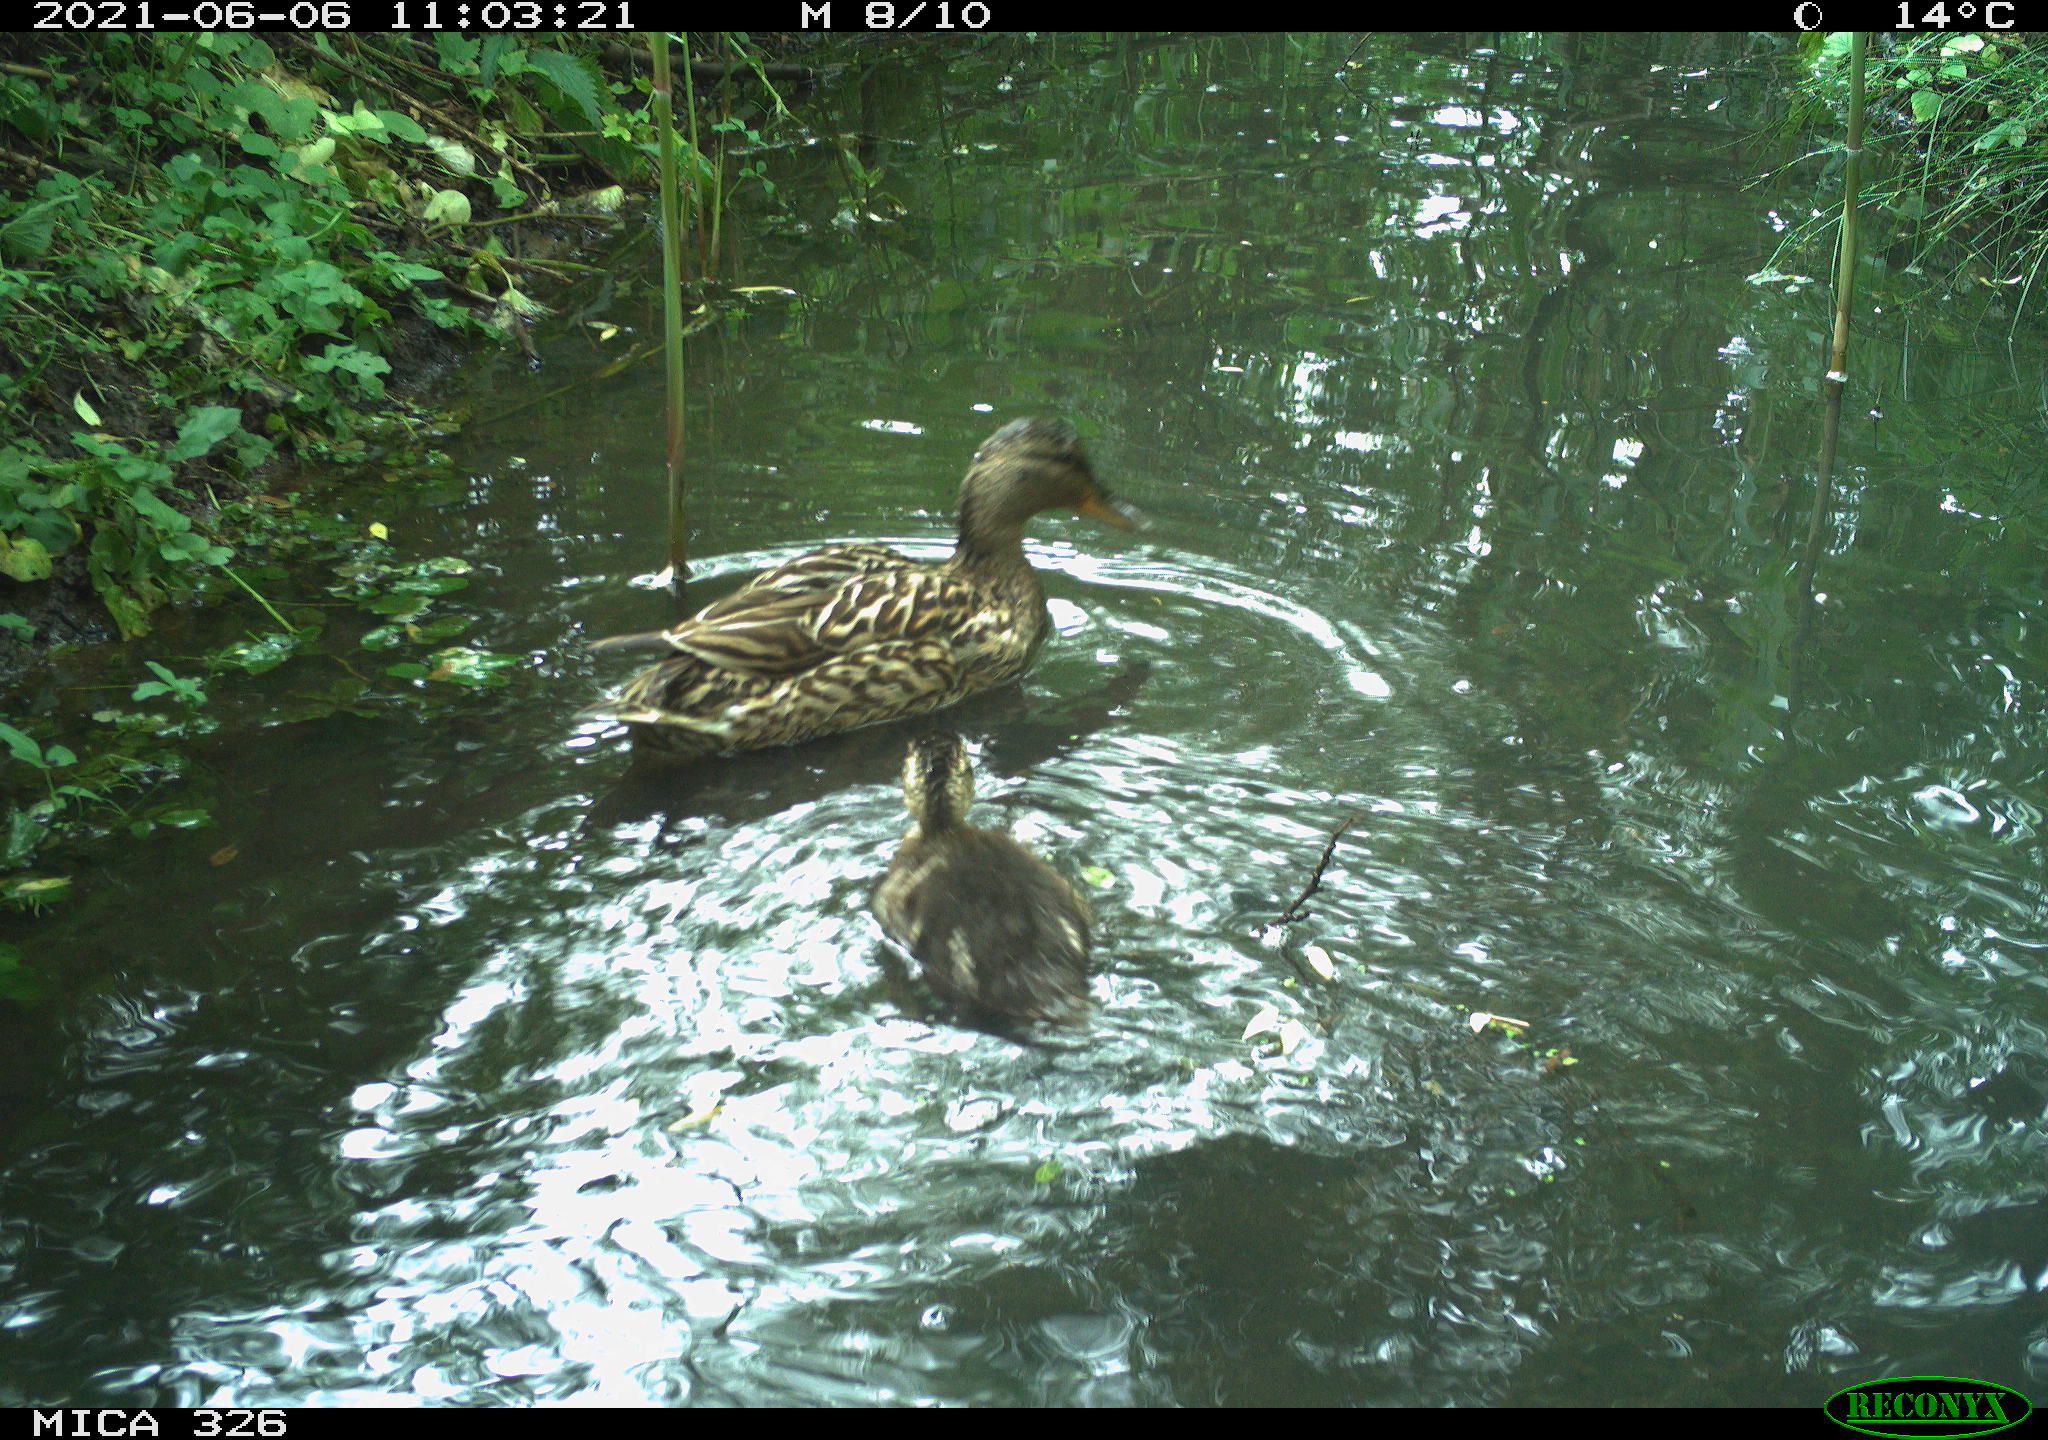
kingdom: Animalia
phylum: Chordata
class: Aves
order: Anseriformes
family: Anatidae
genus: Anas
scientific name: Anas platyrhynchos
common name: Mallard
